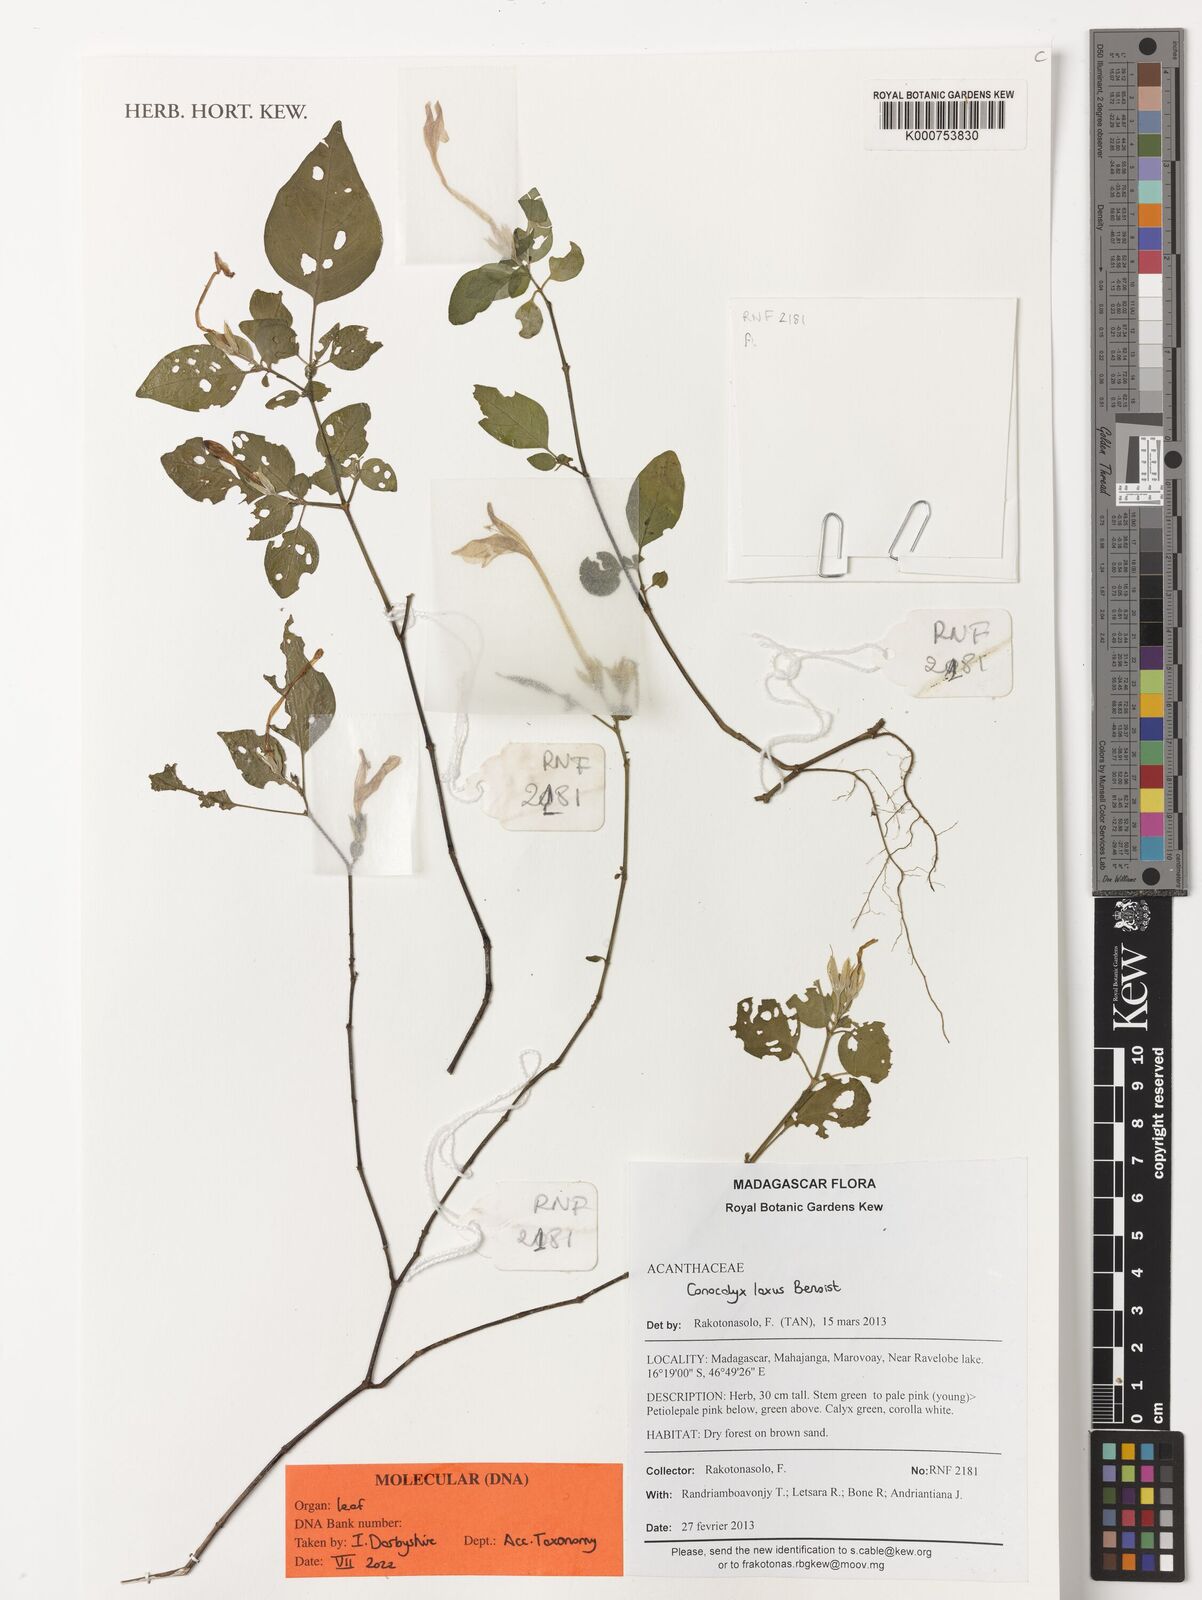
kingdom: Plantae
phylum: Tracheophyta
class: Magnoliopsida
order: Lamiales
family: Acanthaceae
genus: Isoglossa
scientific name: Isoglossa laxa
